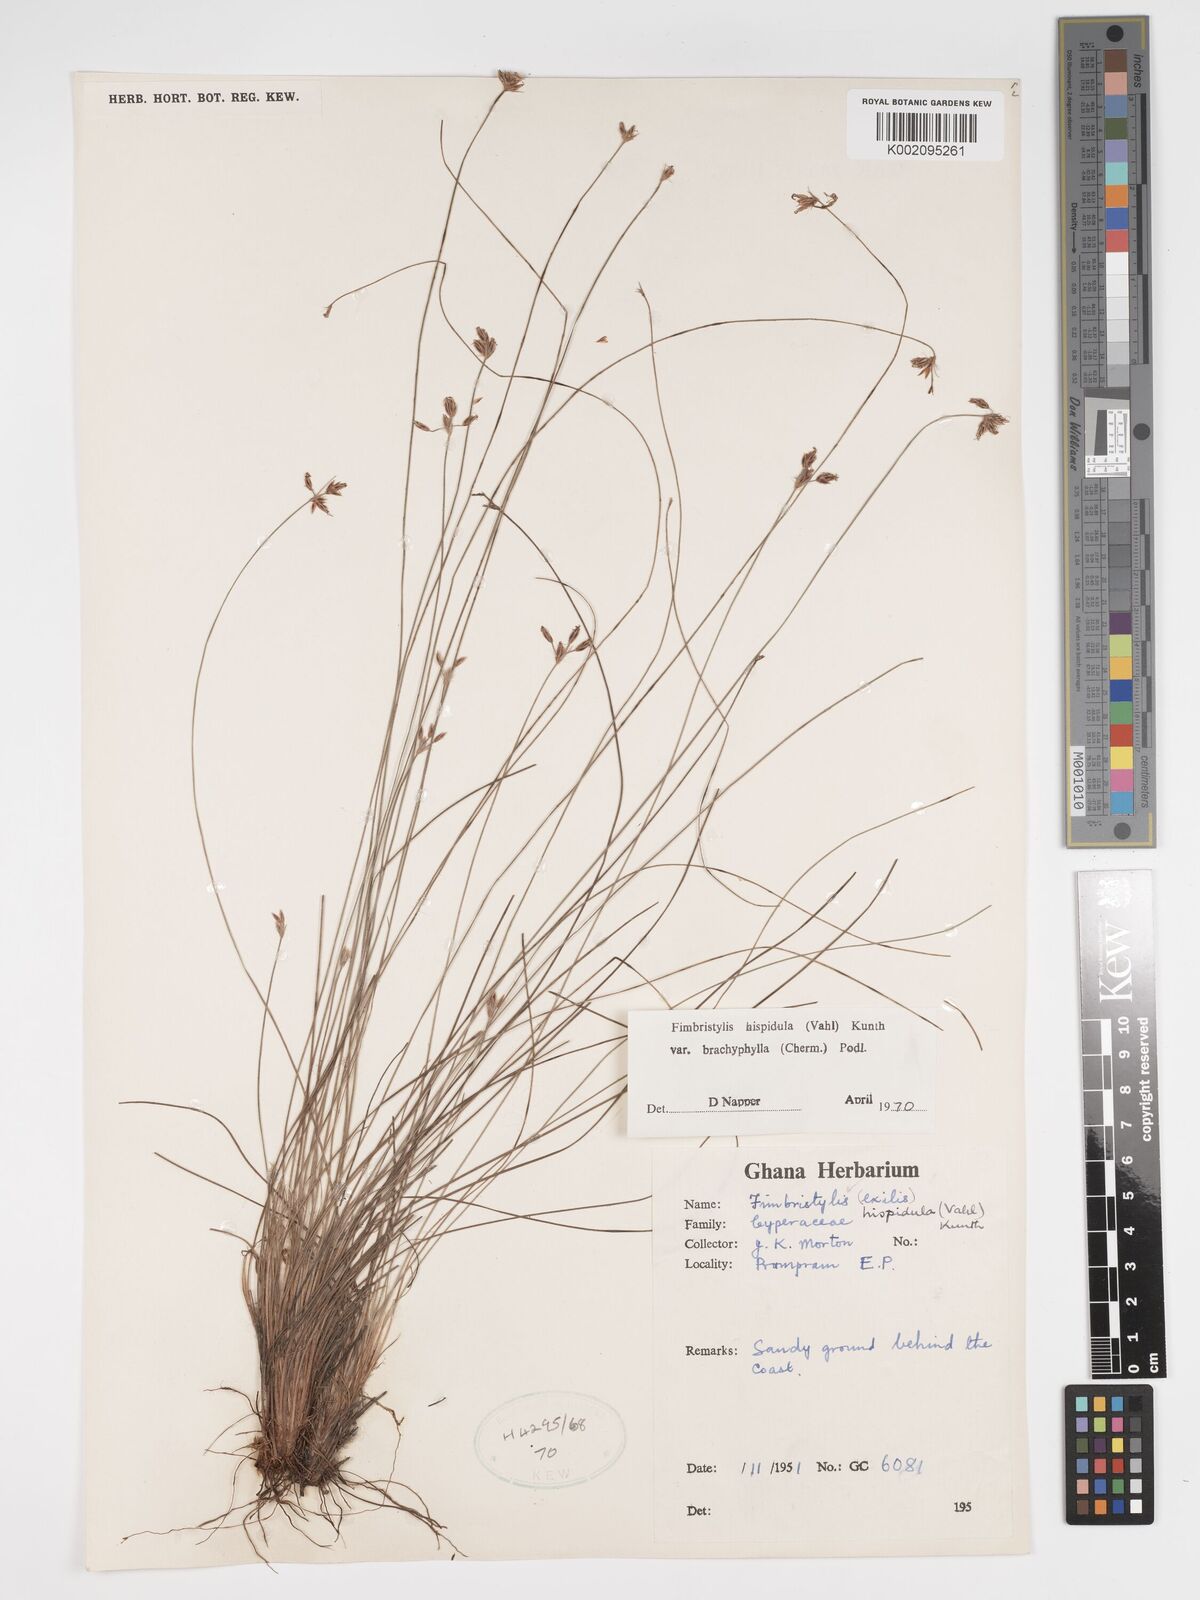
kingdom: Plantae
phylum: Tracheophyta
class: Liliopsida
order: Poales
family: Cyperaceae
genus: Bulbostylis
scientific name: Bulbostylis hispidula
